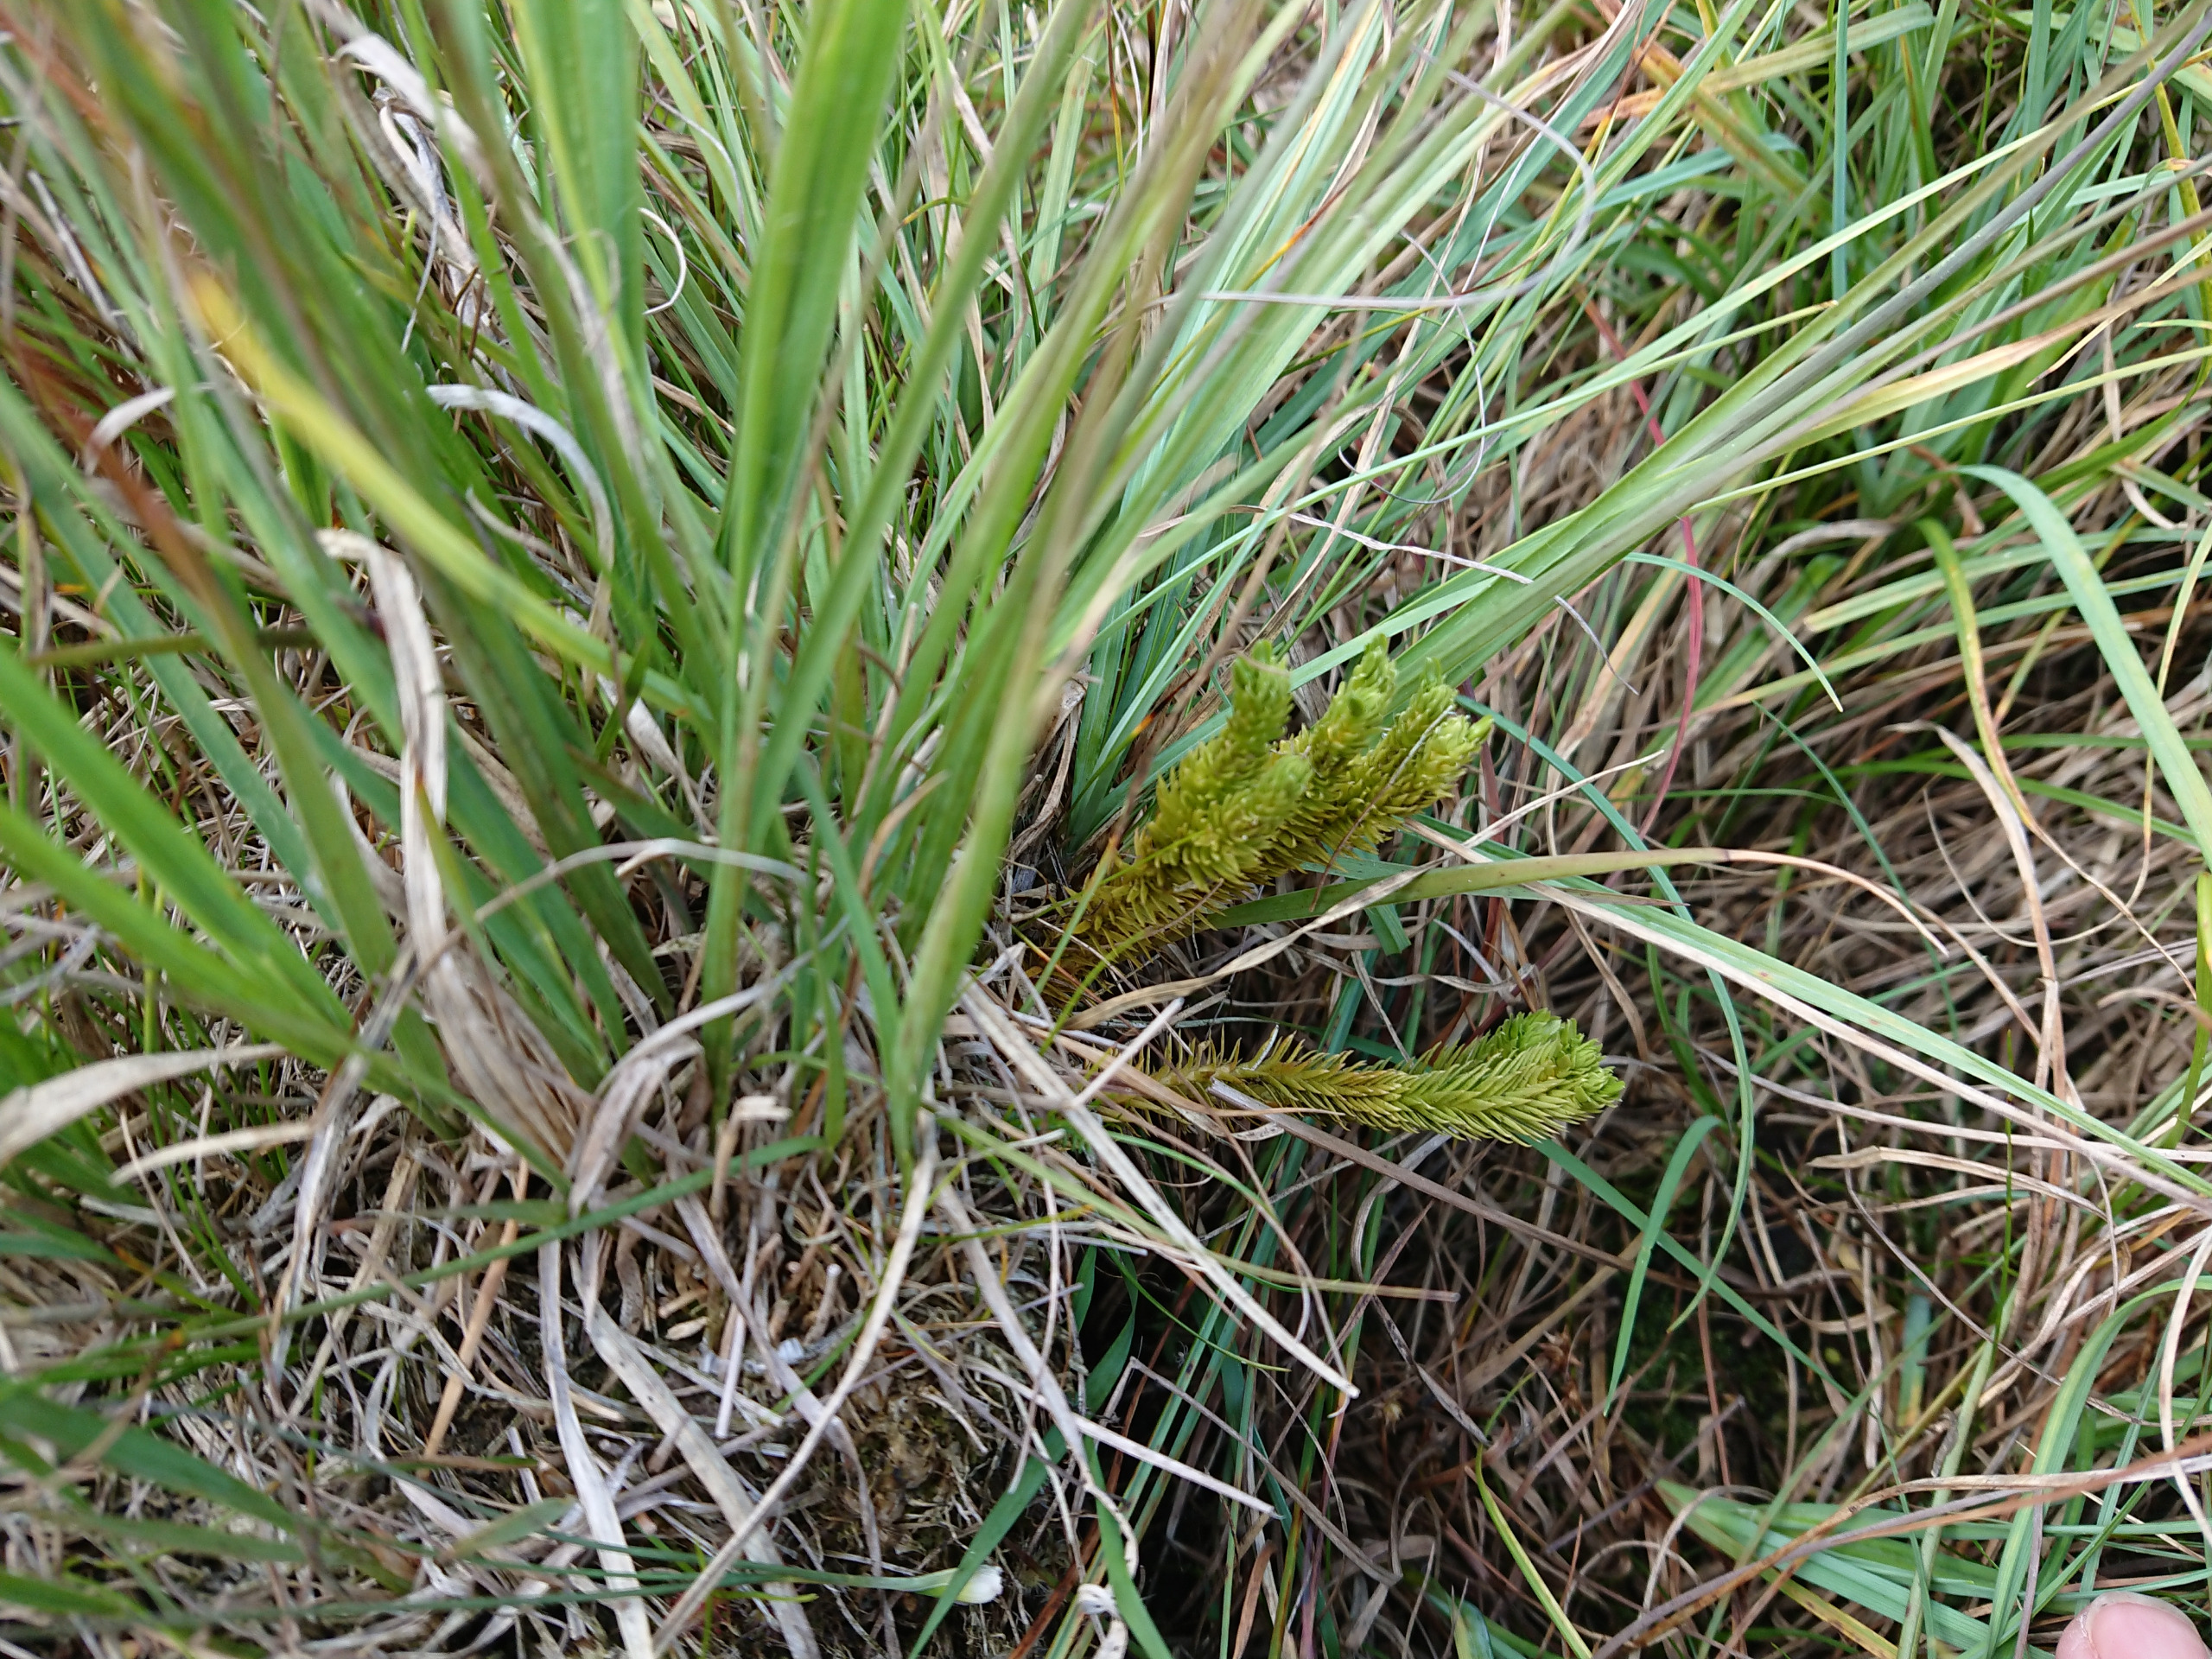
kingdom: Plantae
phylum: Tracheophyta
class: Lycopodiopsida
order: Lycopodiales
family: Lycopodiaceae
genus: Huperzia
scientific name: Huperzia selago
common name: Otteradet ulvefod
